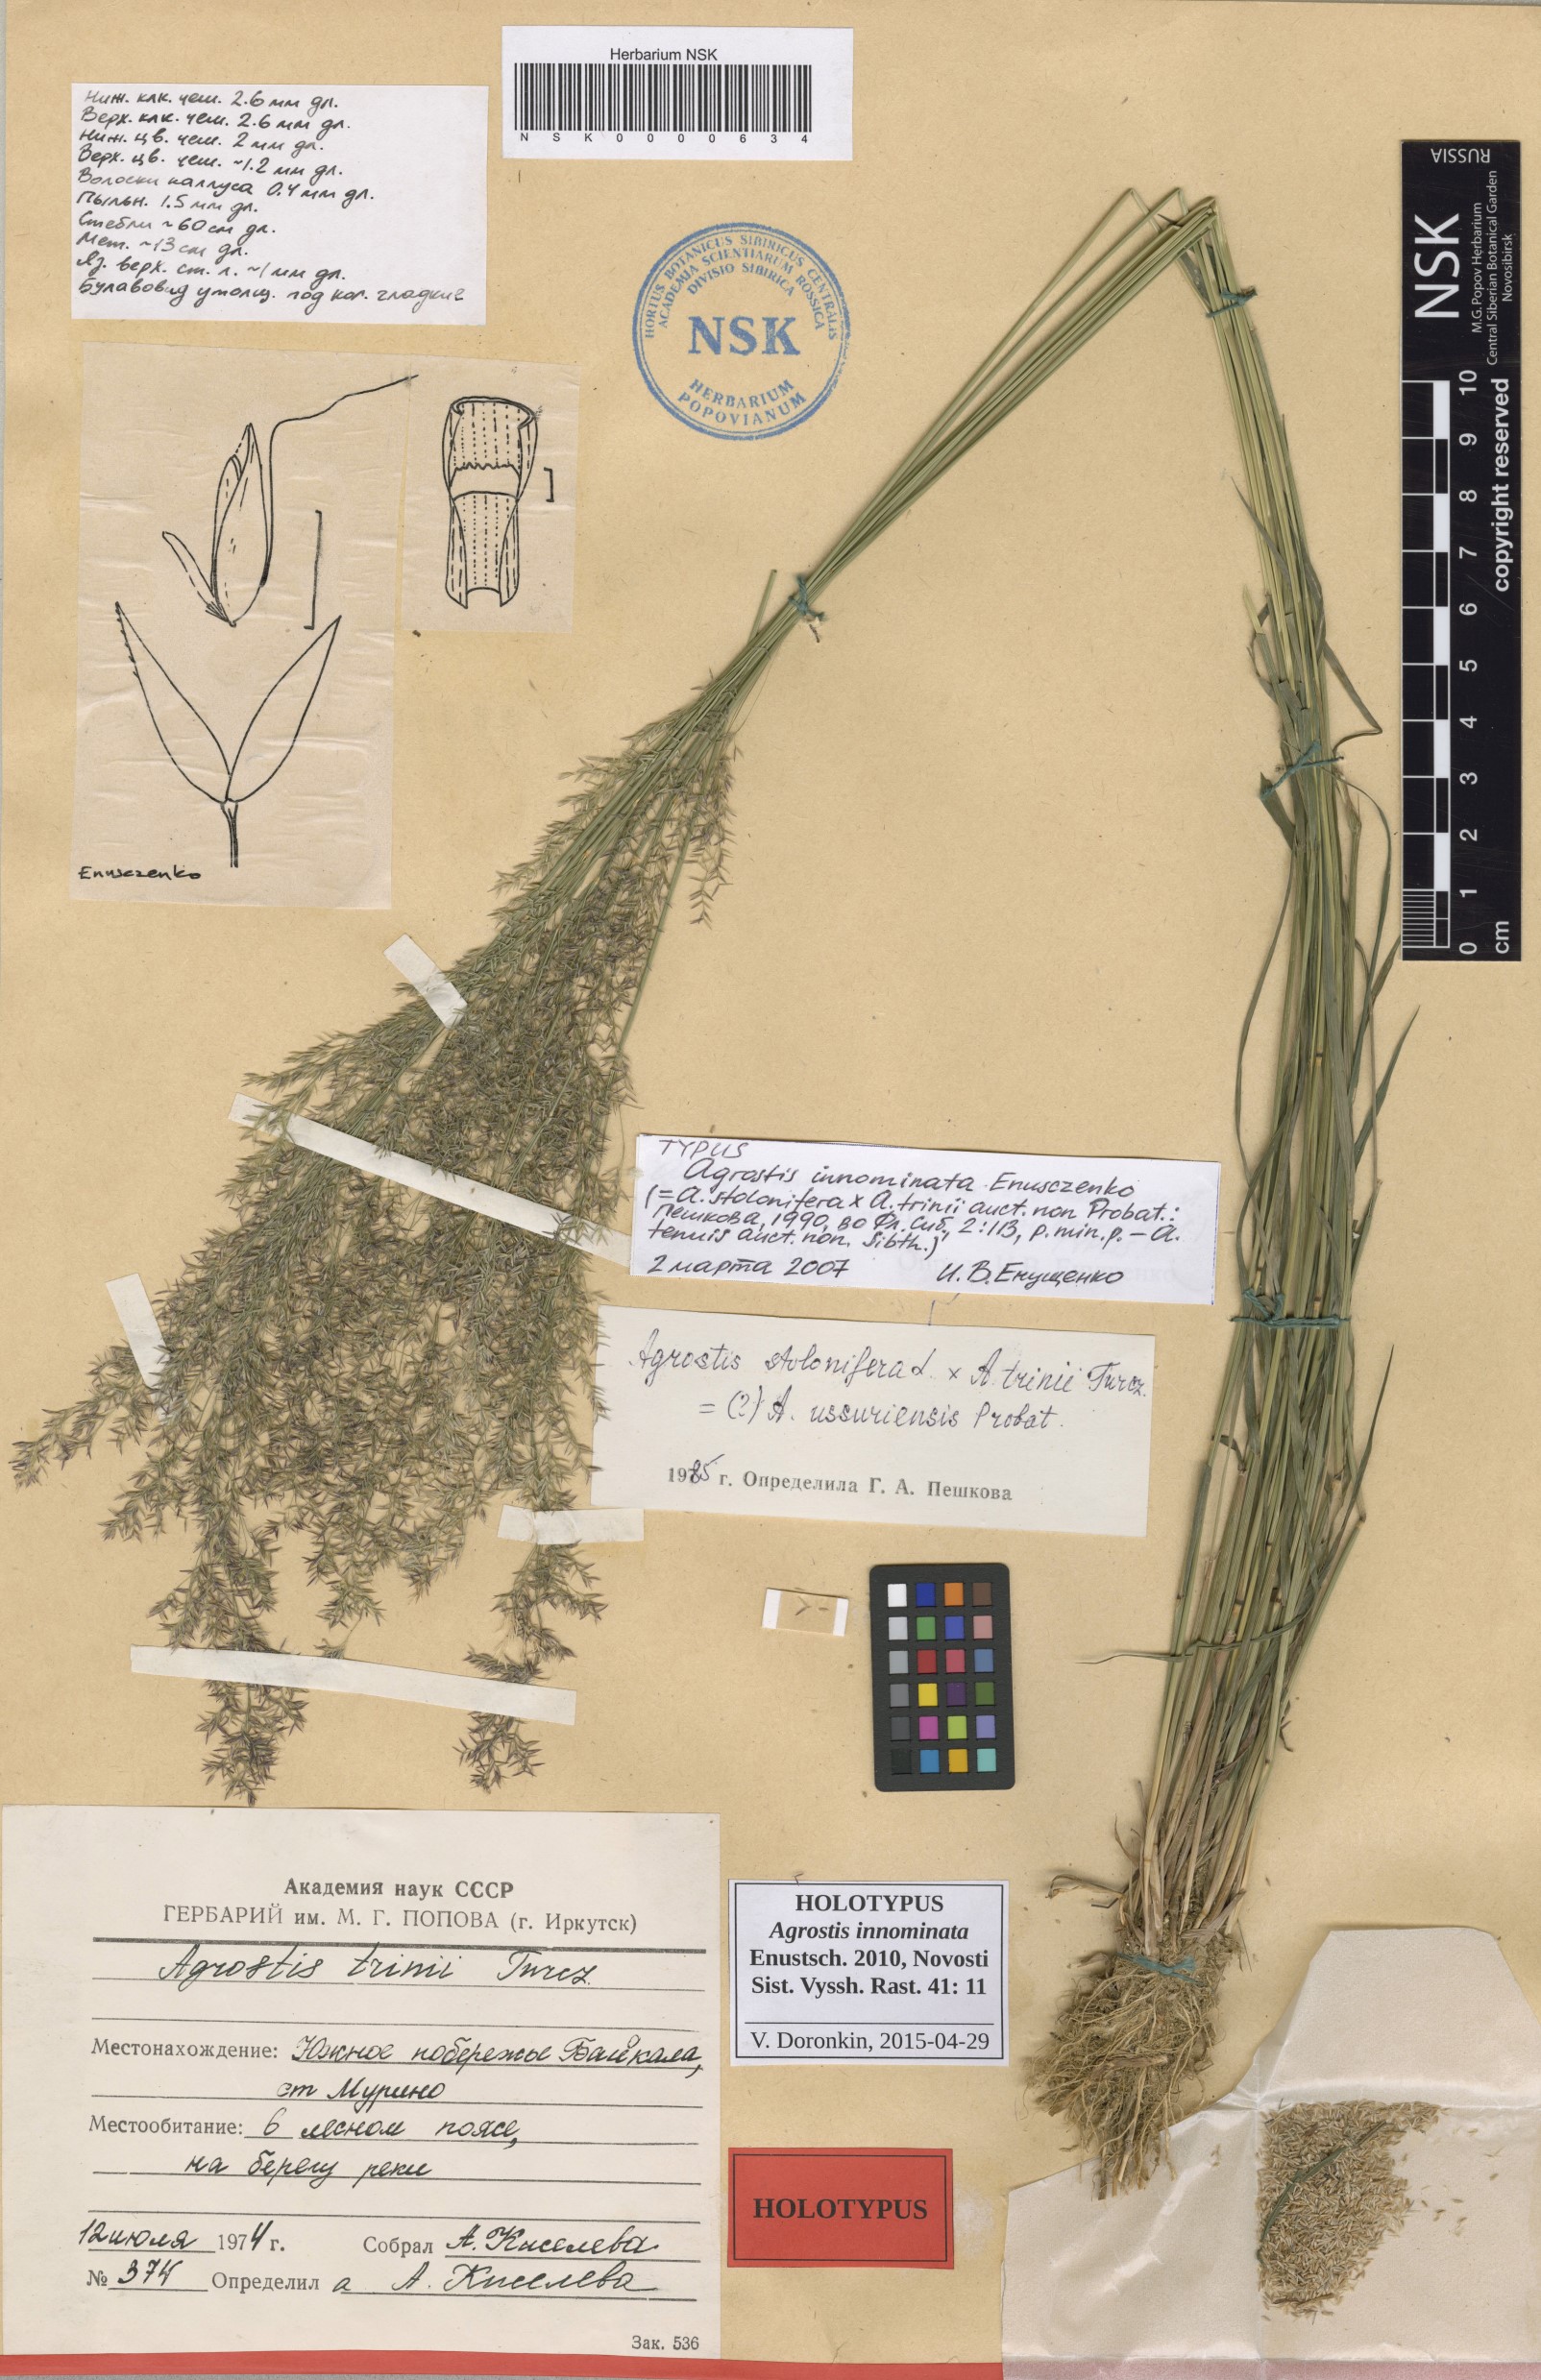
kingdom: Plantae
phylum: Tracheophyta
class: Liliopsida
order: Poales
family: Poaceae
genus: Agrostis
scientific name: Agrostis innominata
